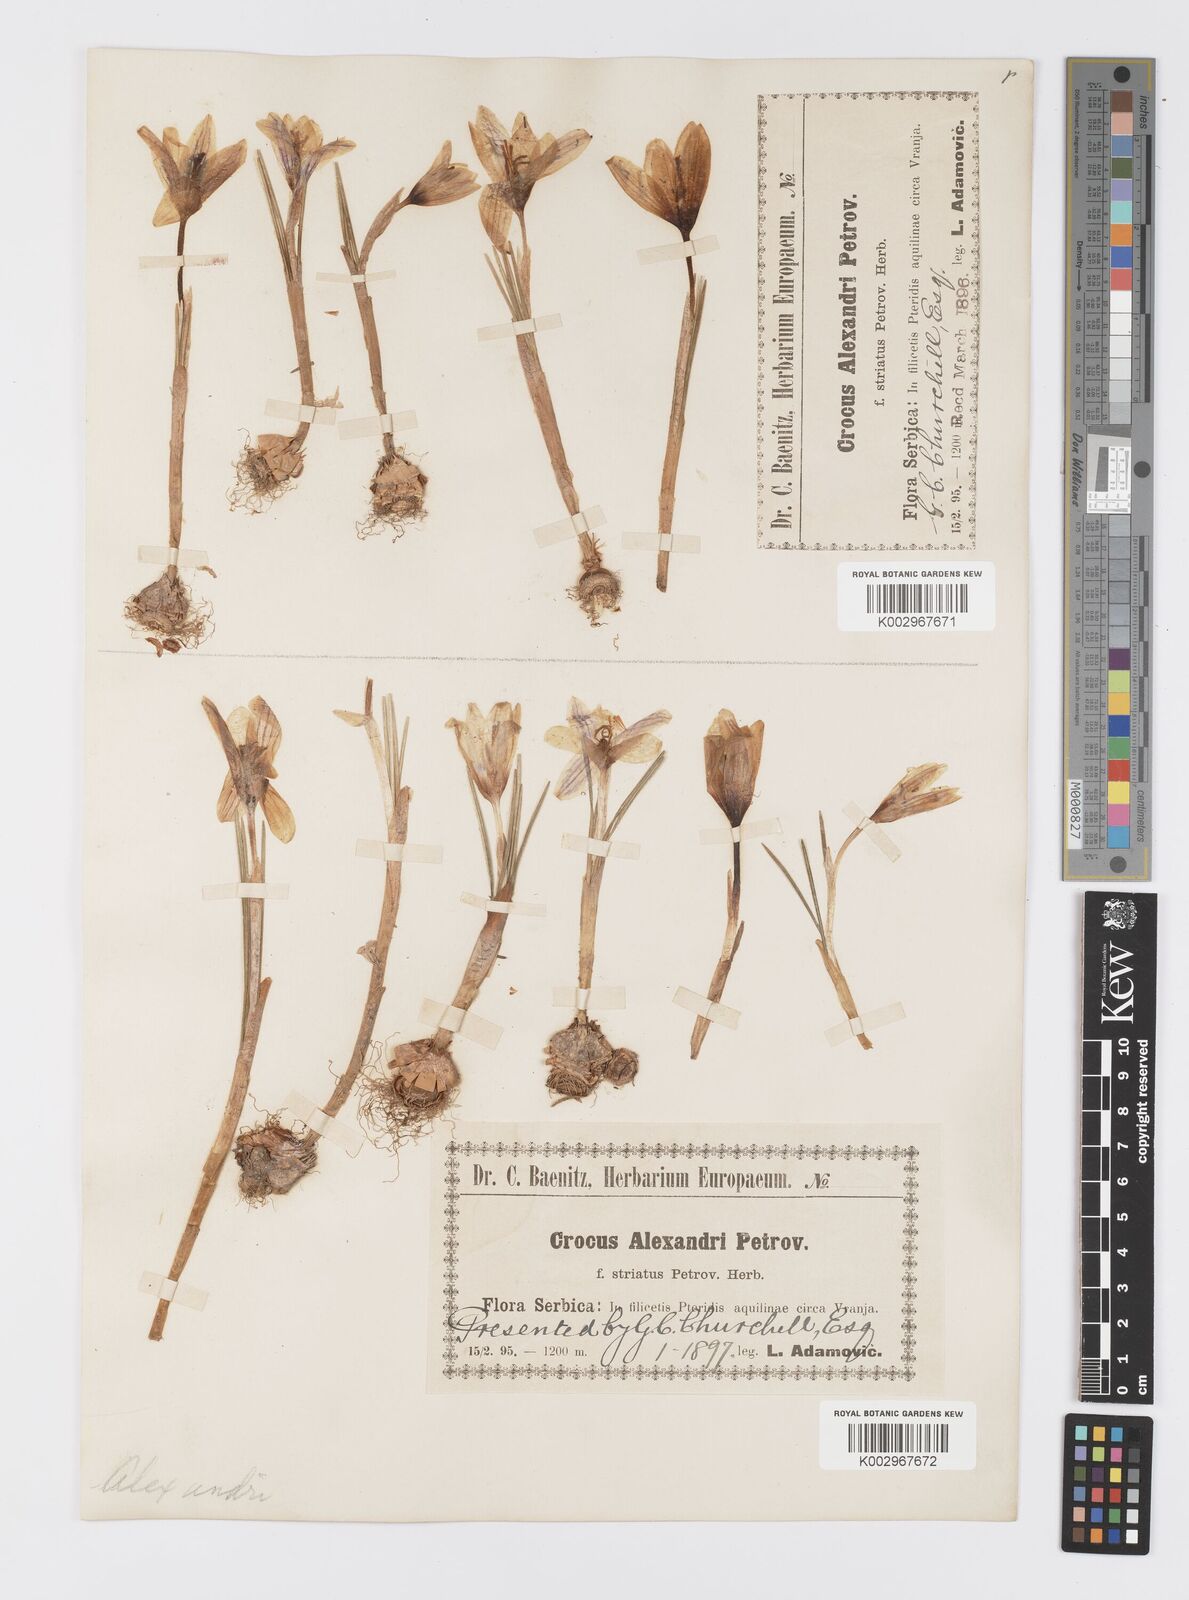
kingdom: Plantae
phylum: Tracheophyta
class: Liliopsida
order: Asparagales
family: Iridaceae
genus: Crocus
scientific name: Crocus alexandri
